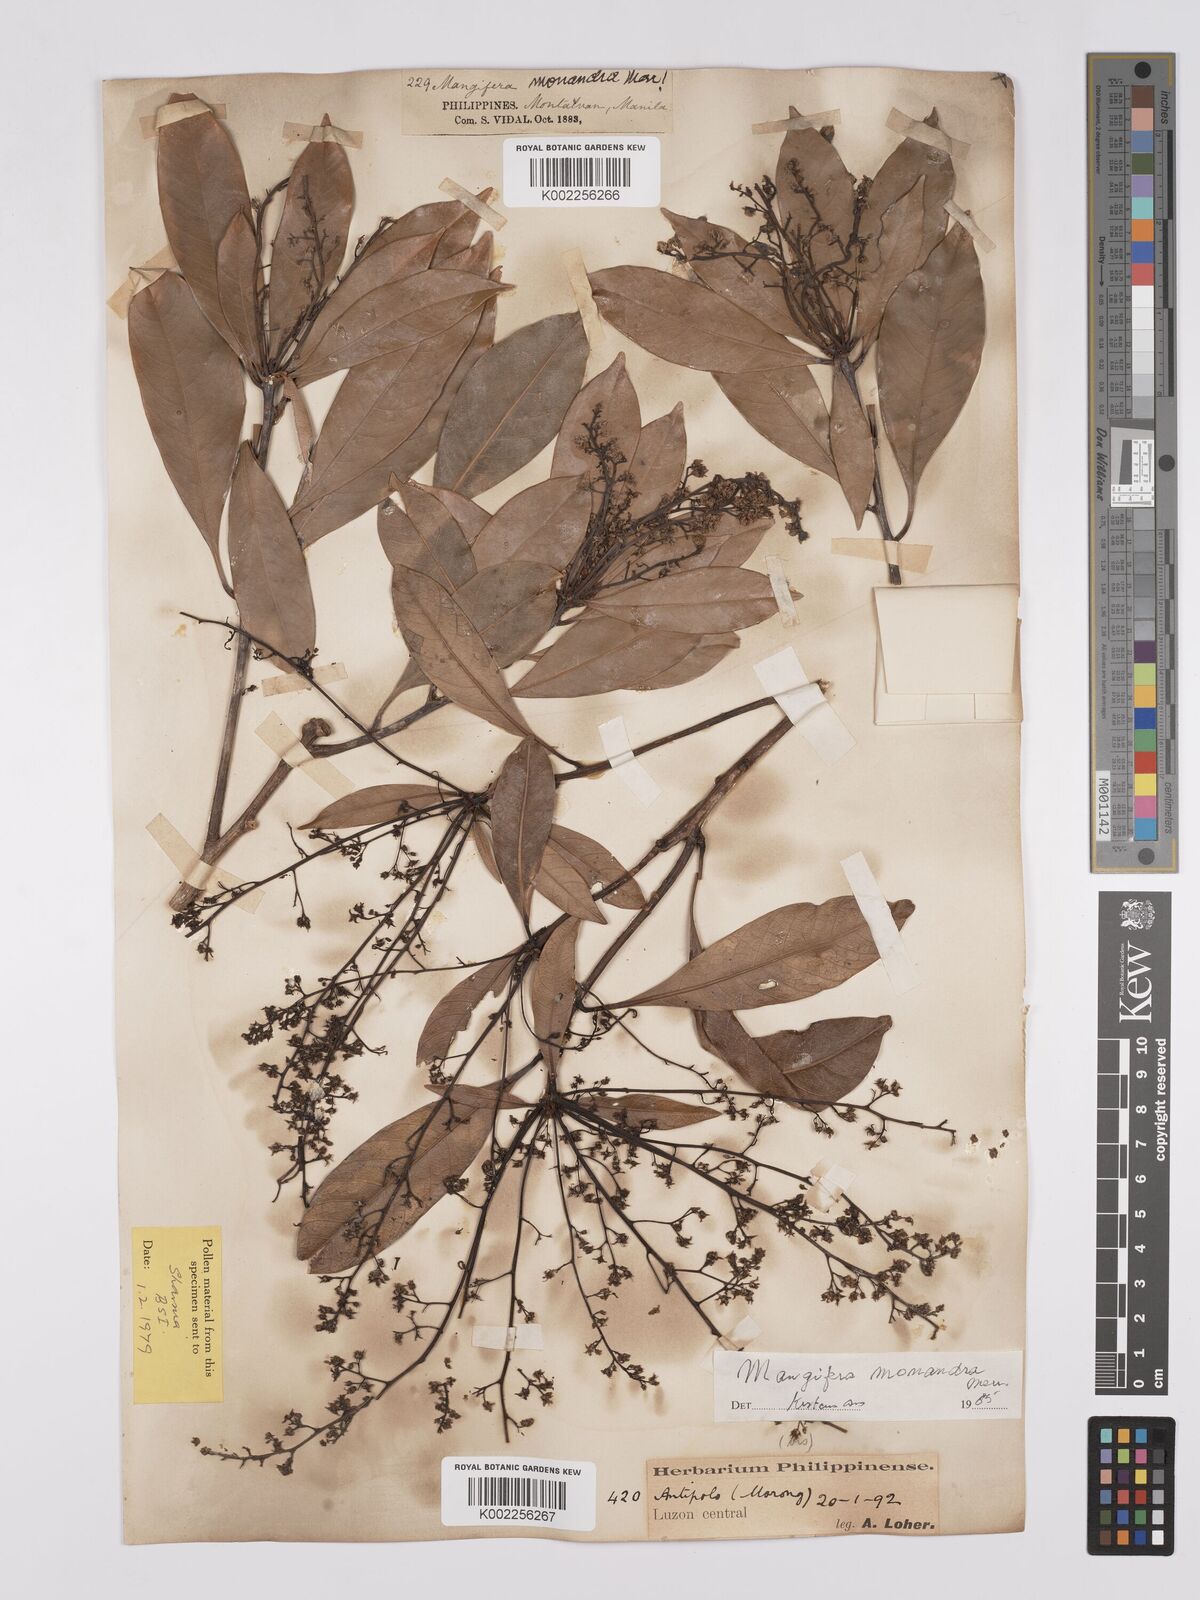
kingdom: Plantae
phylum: Tracheophyta
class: Magnoliopsida
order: Sapindales
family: Anacardiaceae
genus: Mangifera
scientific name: Mangifera monandra
